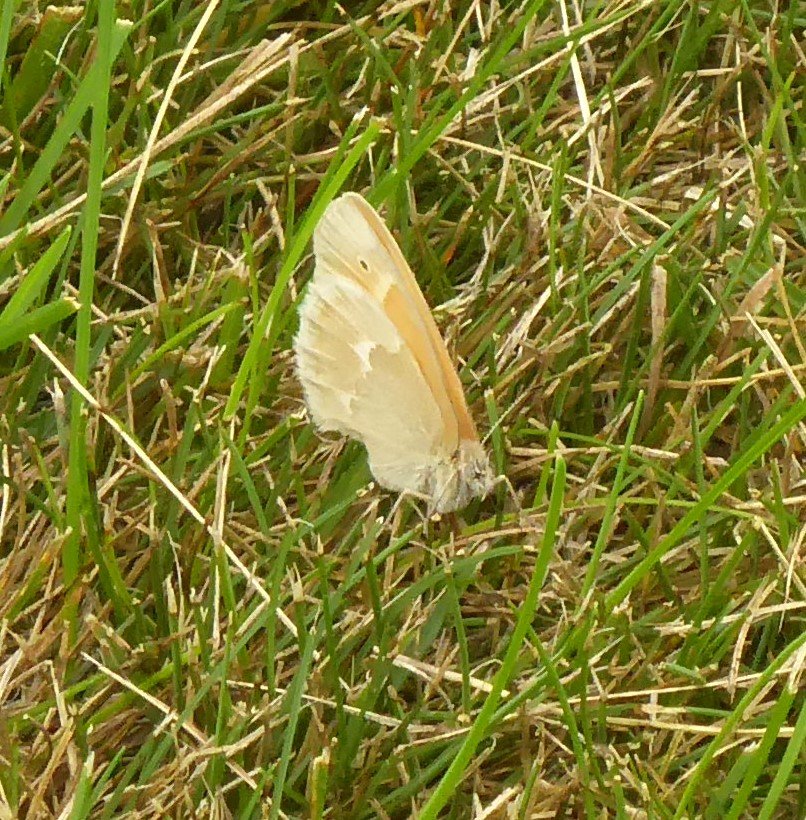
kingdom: Animalia
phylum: Arthropoda
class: Insecta
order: Lepidoptera
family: Nymphalidae
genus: Coenonympha
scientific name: Coenonympha tullia
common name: Large Heath
